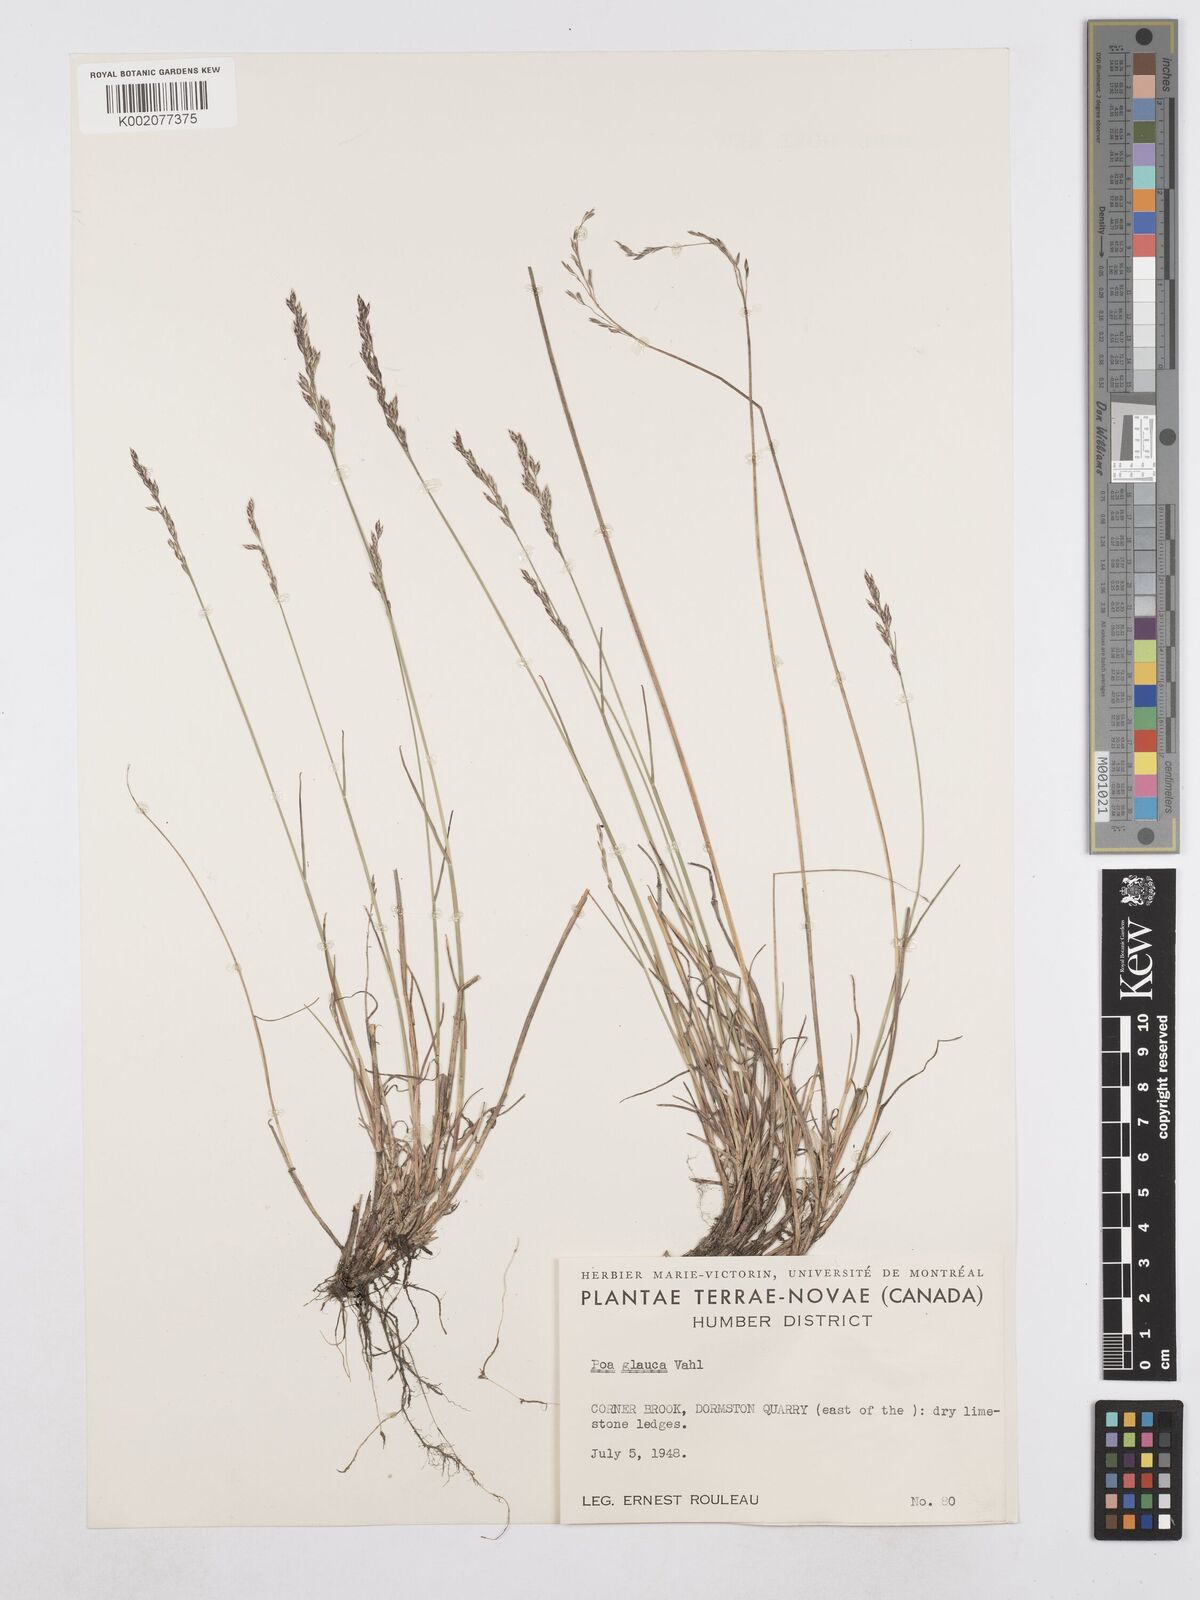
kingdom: Plantae
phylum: Tracheophyta
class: Liliopsida
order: Poales
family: Poaceae
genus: Poa
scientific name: Poa glauca
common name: Glaucous bluegrass
